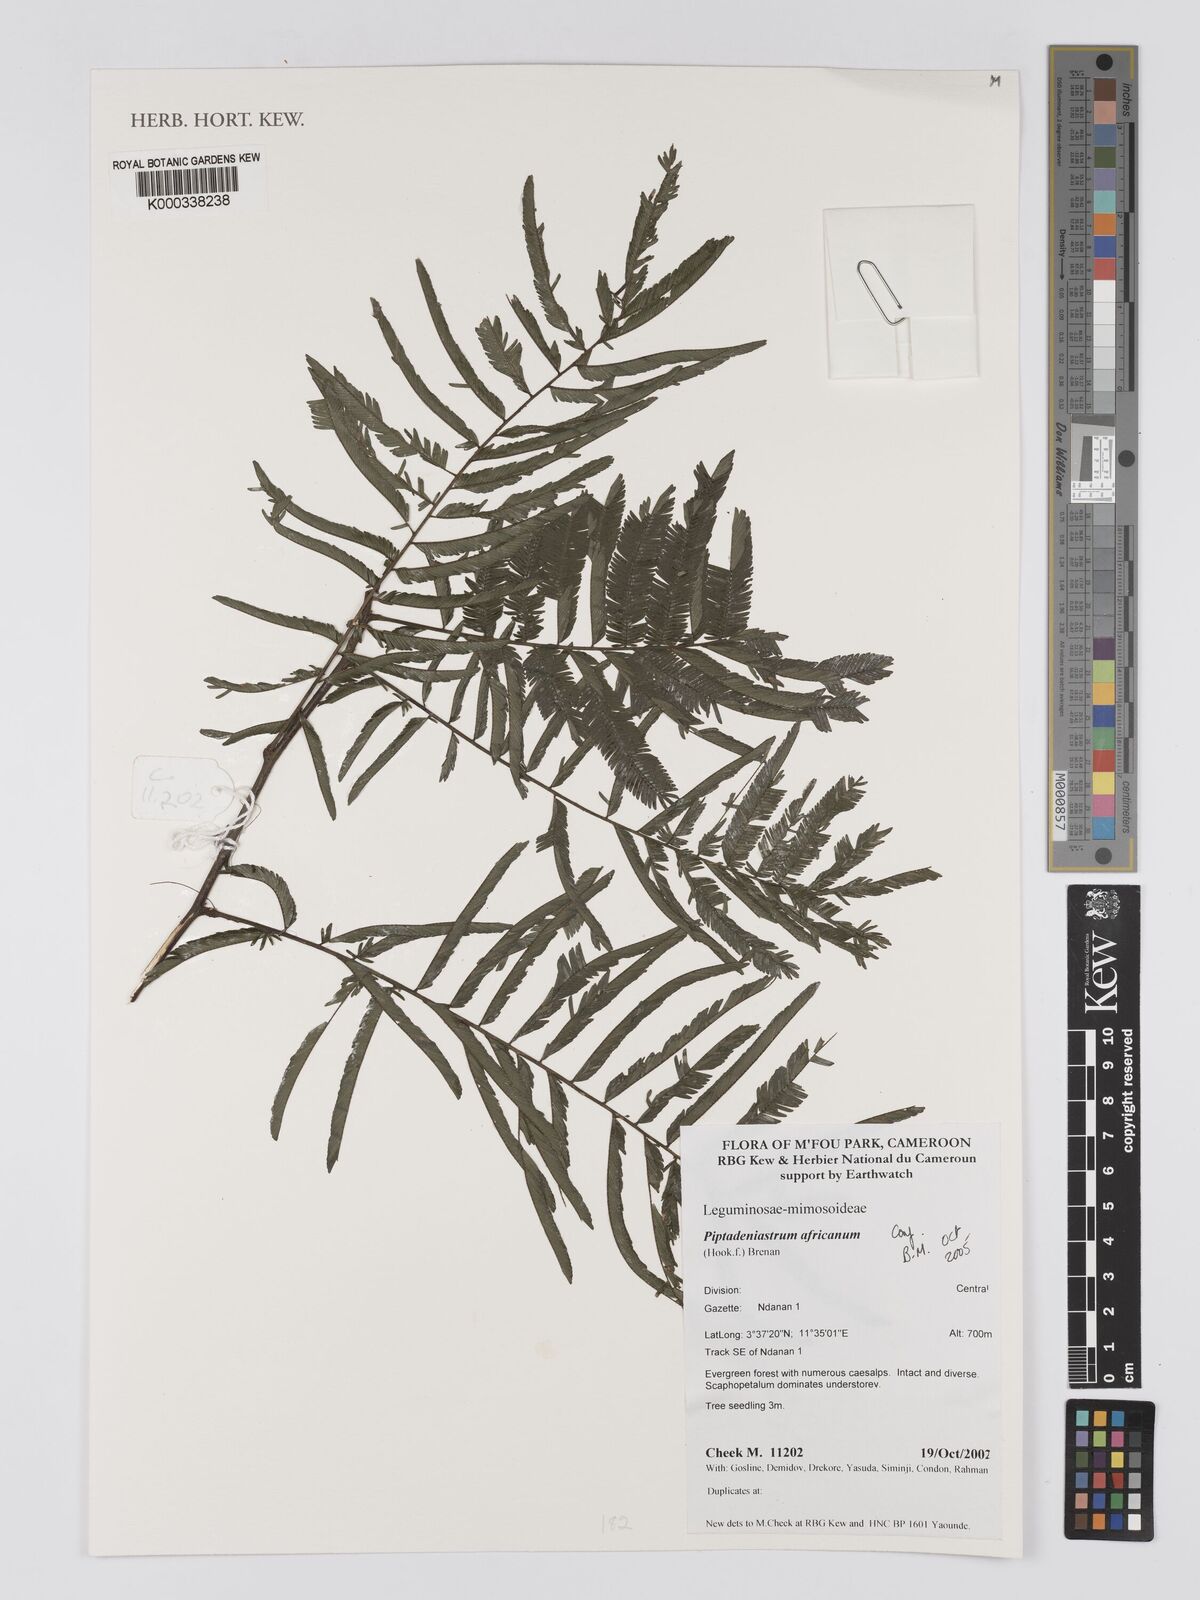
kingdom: Plantae
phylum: Tracheophyta
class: Magnoliopsida
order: Fabales
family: Fabaceae
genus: Piptadeniastrum
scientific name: Piptadeniastrum africanum
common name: African greenheart
